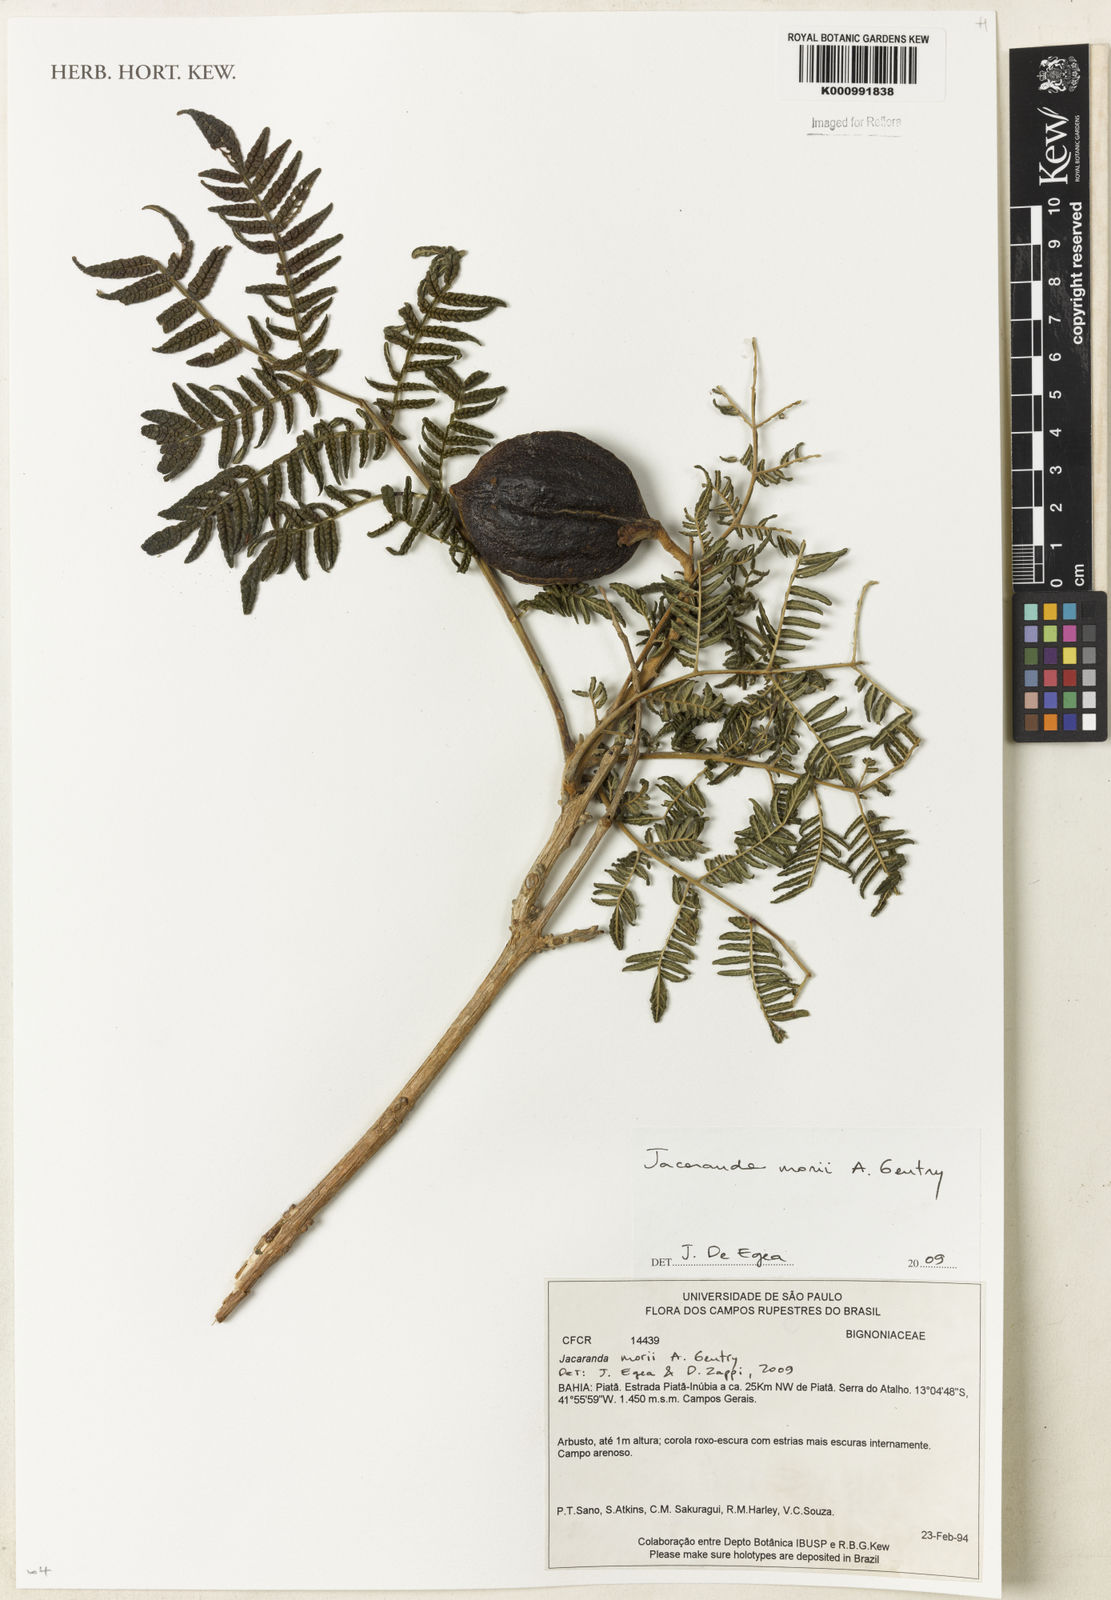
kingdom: Plantae
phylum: Tracheophyta
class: Magnoliopsida
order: Lamiales
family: Bignoniaceae
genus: Jacaranda
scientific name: Jacaranda ulei
